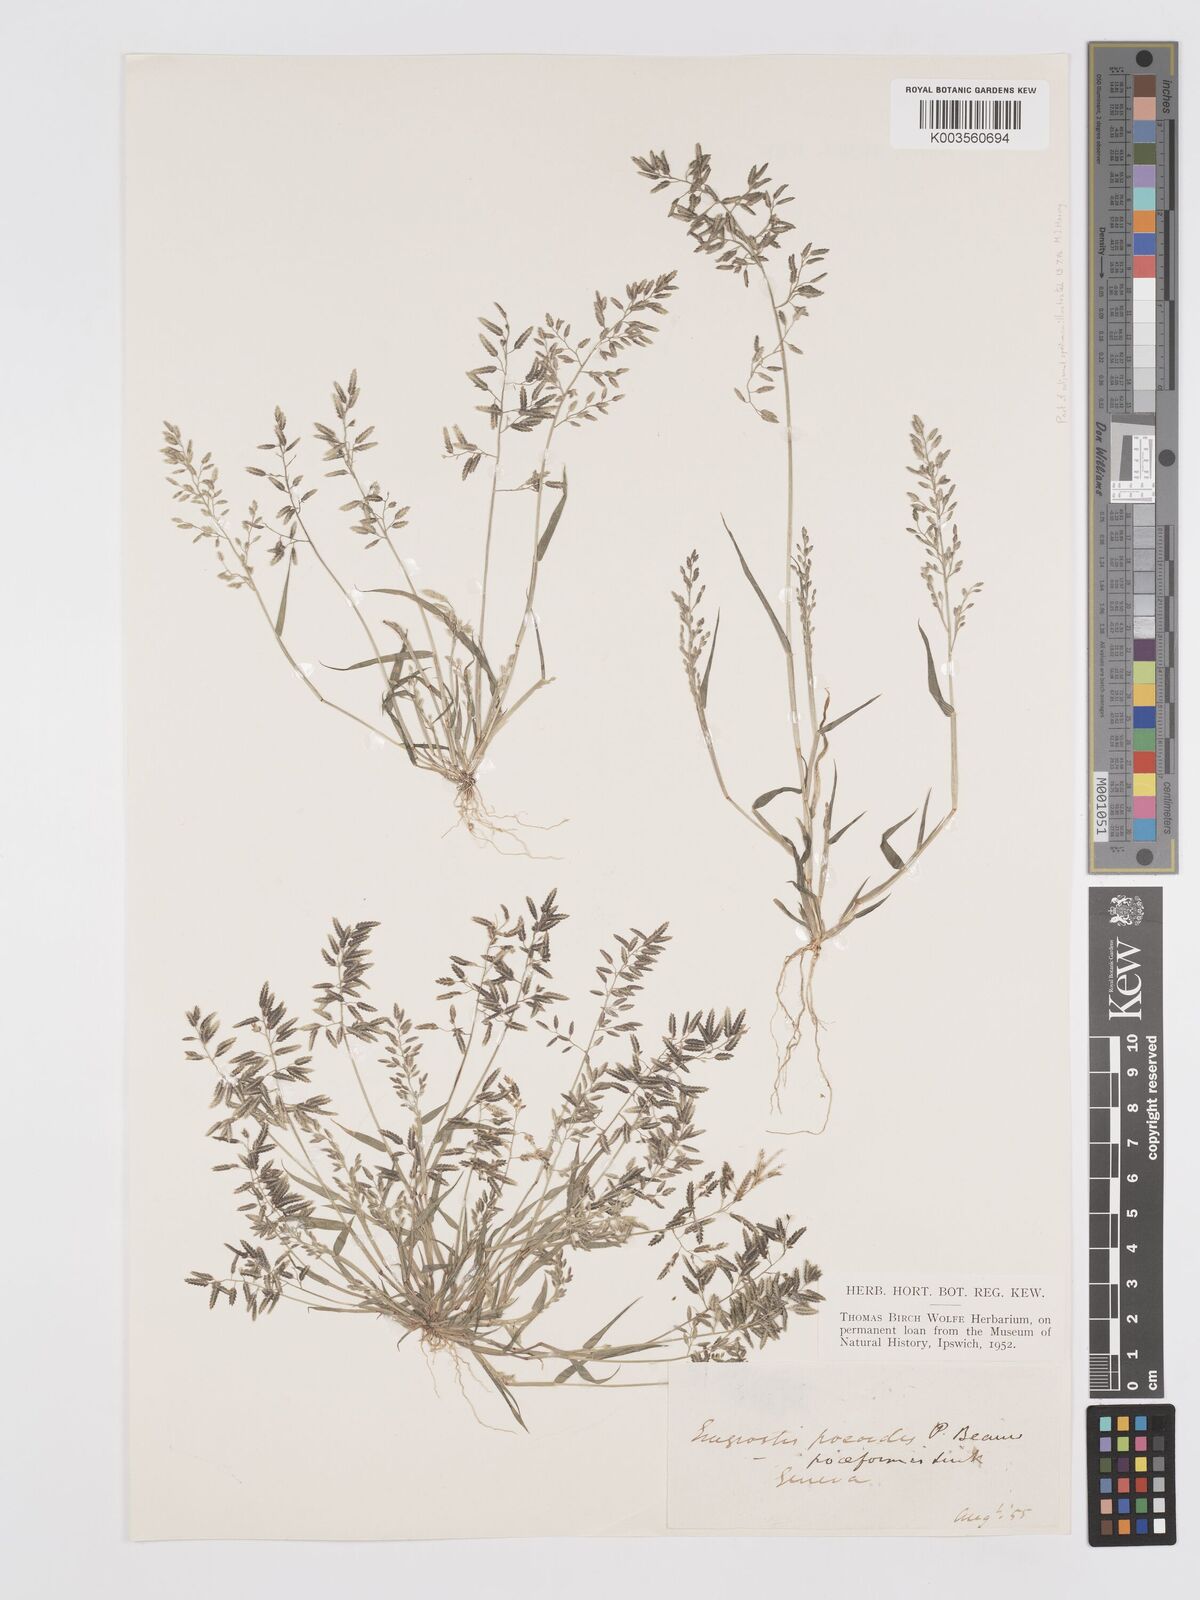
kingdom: Plantae
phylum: Tracheophyta
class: Liliopsida
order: Poales
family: Poaceae
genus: Eragrostis
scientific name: Eragrostis minor
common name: Small love-grass
